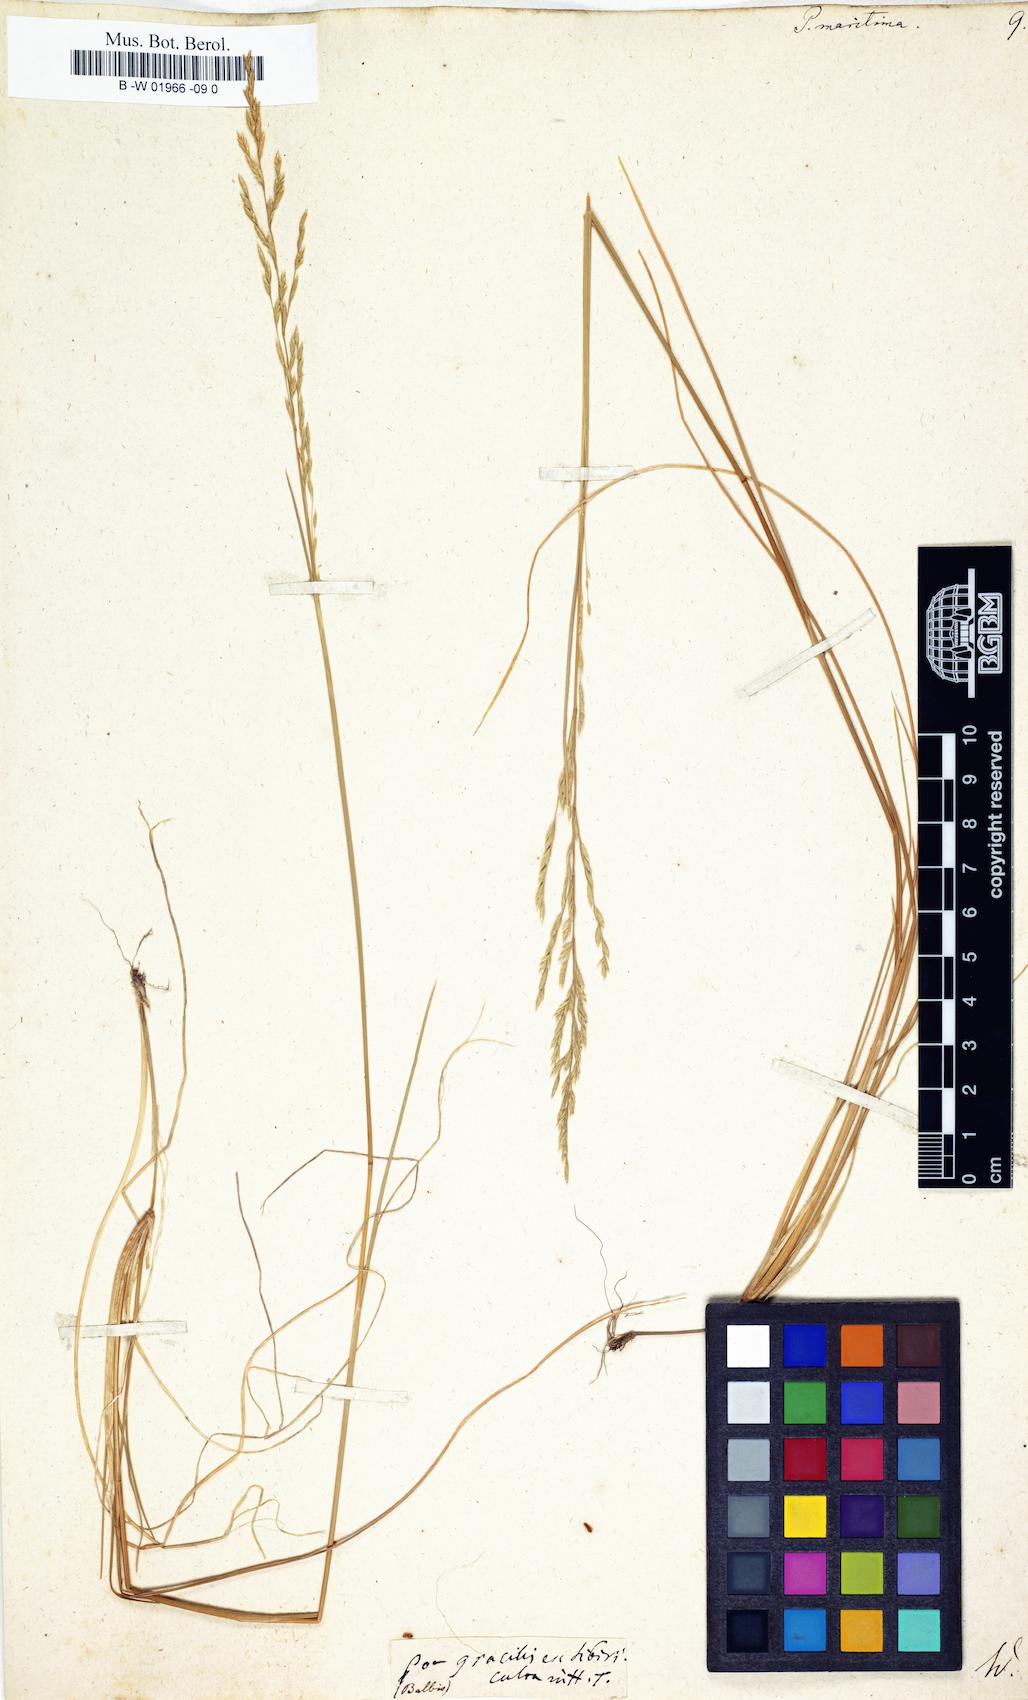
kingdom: Plantae
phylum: Tracheophyta
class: Liliopsida
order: Poales
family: Poaceae
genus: Poa
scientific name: Poa maritima
